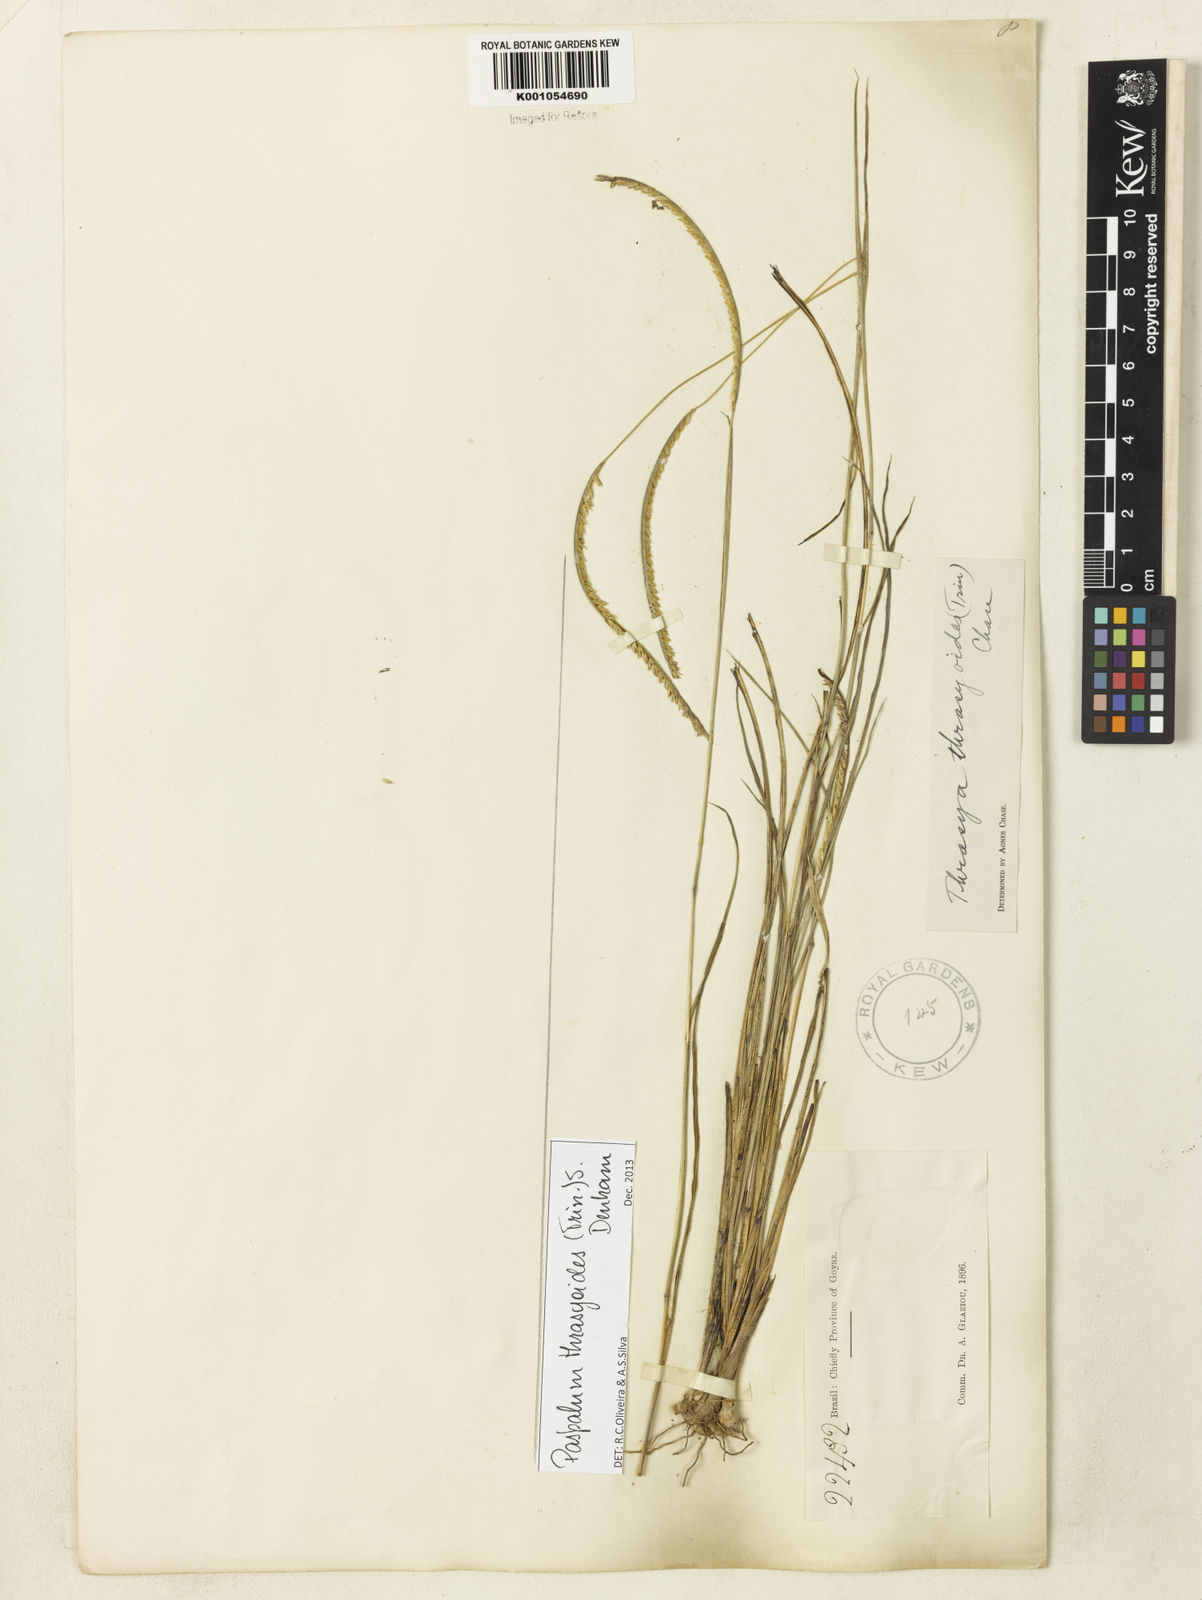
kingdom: Plantae
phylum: Tracheophyta
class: Liliopsida
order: Poales
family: Poaceae
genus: Paspalum
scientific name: Paspalum thrasyoides
